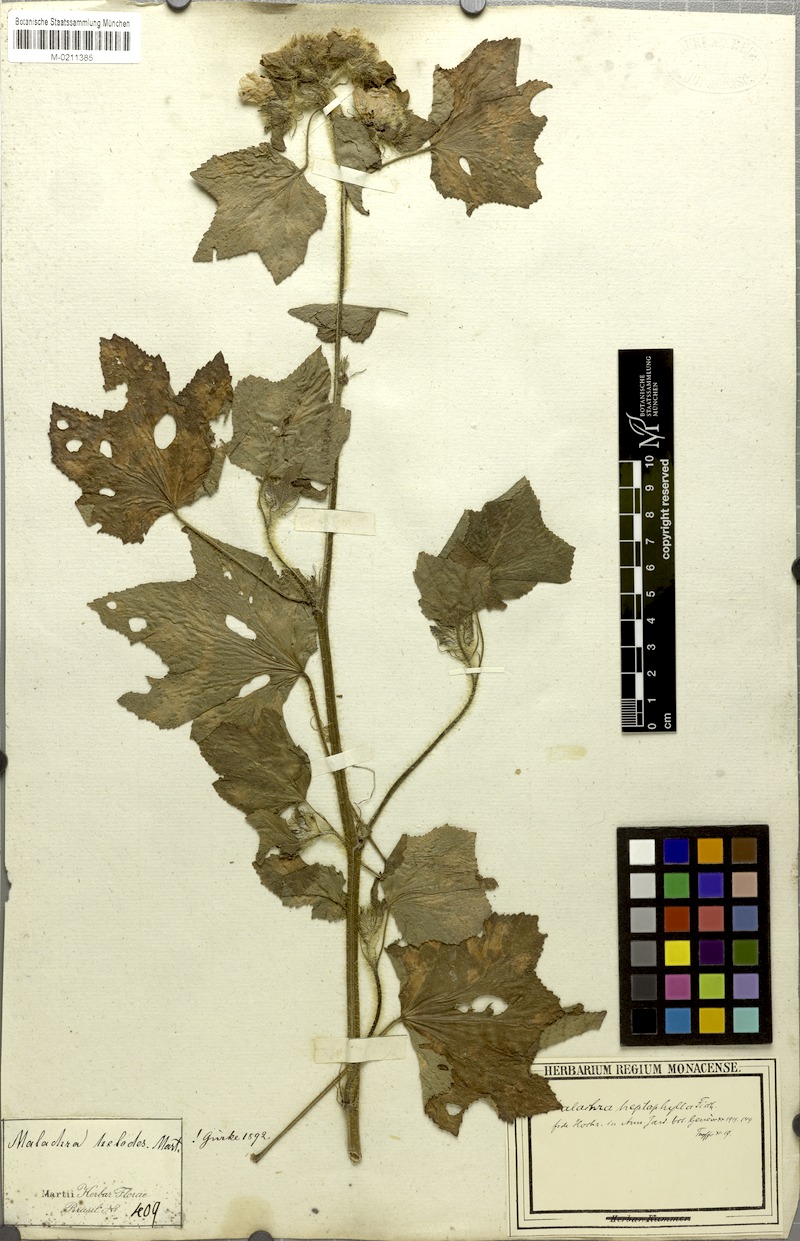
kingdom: Plantae
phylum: Tracheophyta
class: Magnoliopsida
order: Malvales
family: Malvaceae
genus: Malachra
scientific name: Malachra capitata
